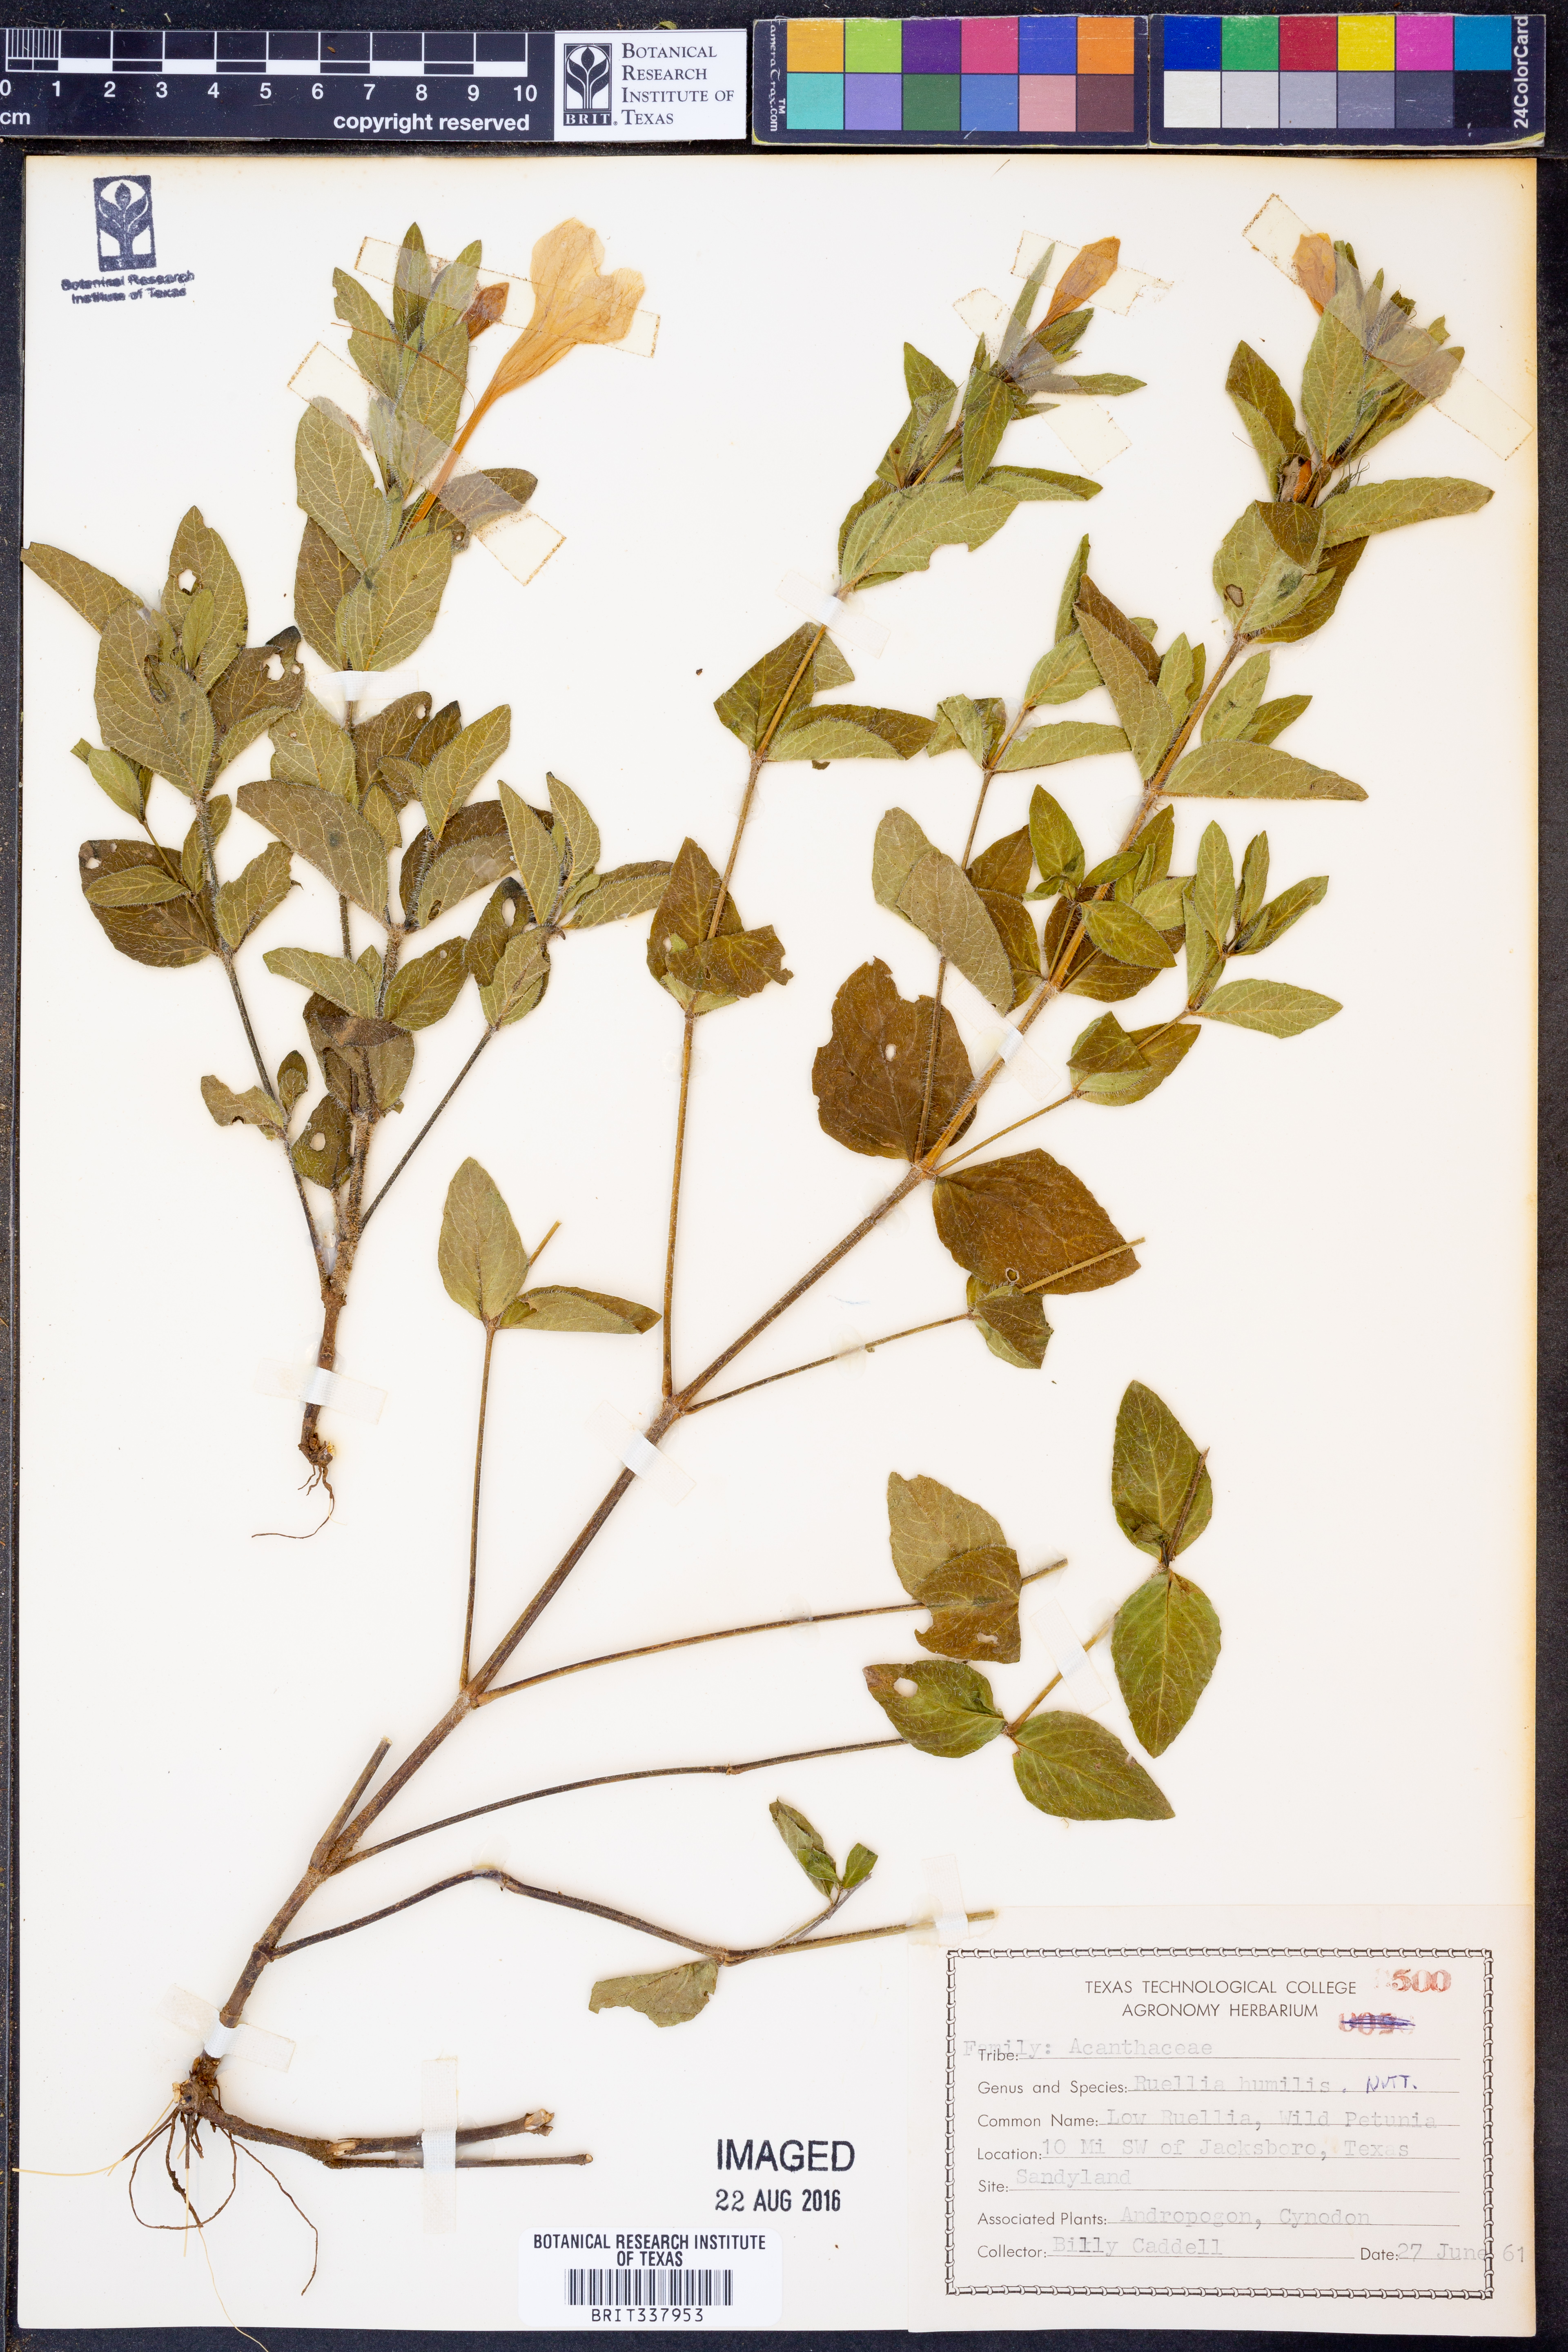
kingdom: Plantae
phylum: Tracheophyta
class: Magnoliopsida
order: Lamiales
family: Acanthaceae
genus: Ruellia
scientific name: Ruellia humilis
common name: Fringe-leaf ruellia
